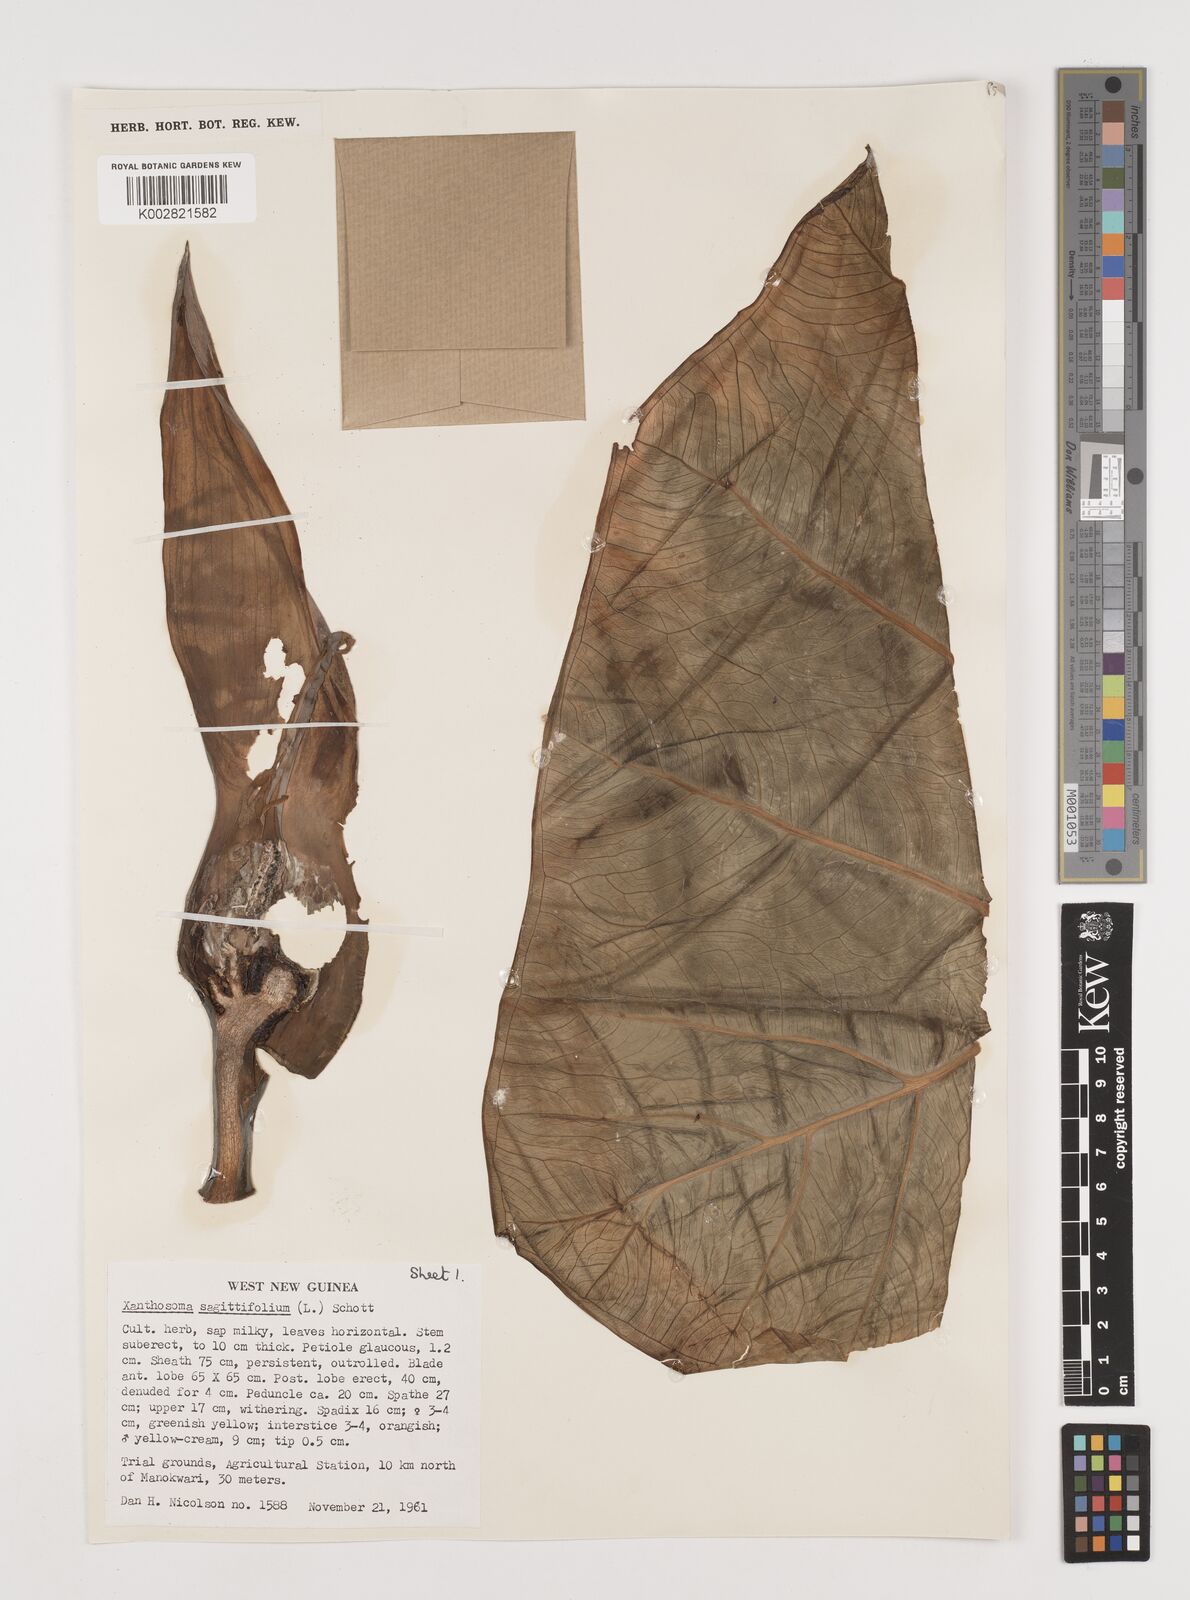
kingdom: Plantae
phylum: Tracheophyta
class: Liliopsida
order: Alismatales
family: Araceae
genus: Xanthosoma
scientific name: Xanthosoma sagittifolium
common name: Arrowleaf elephant's ear
